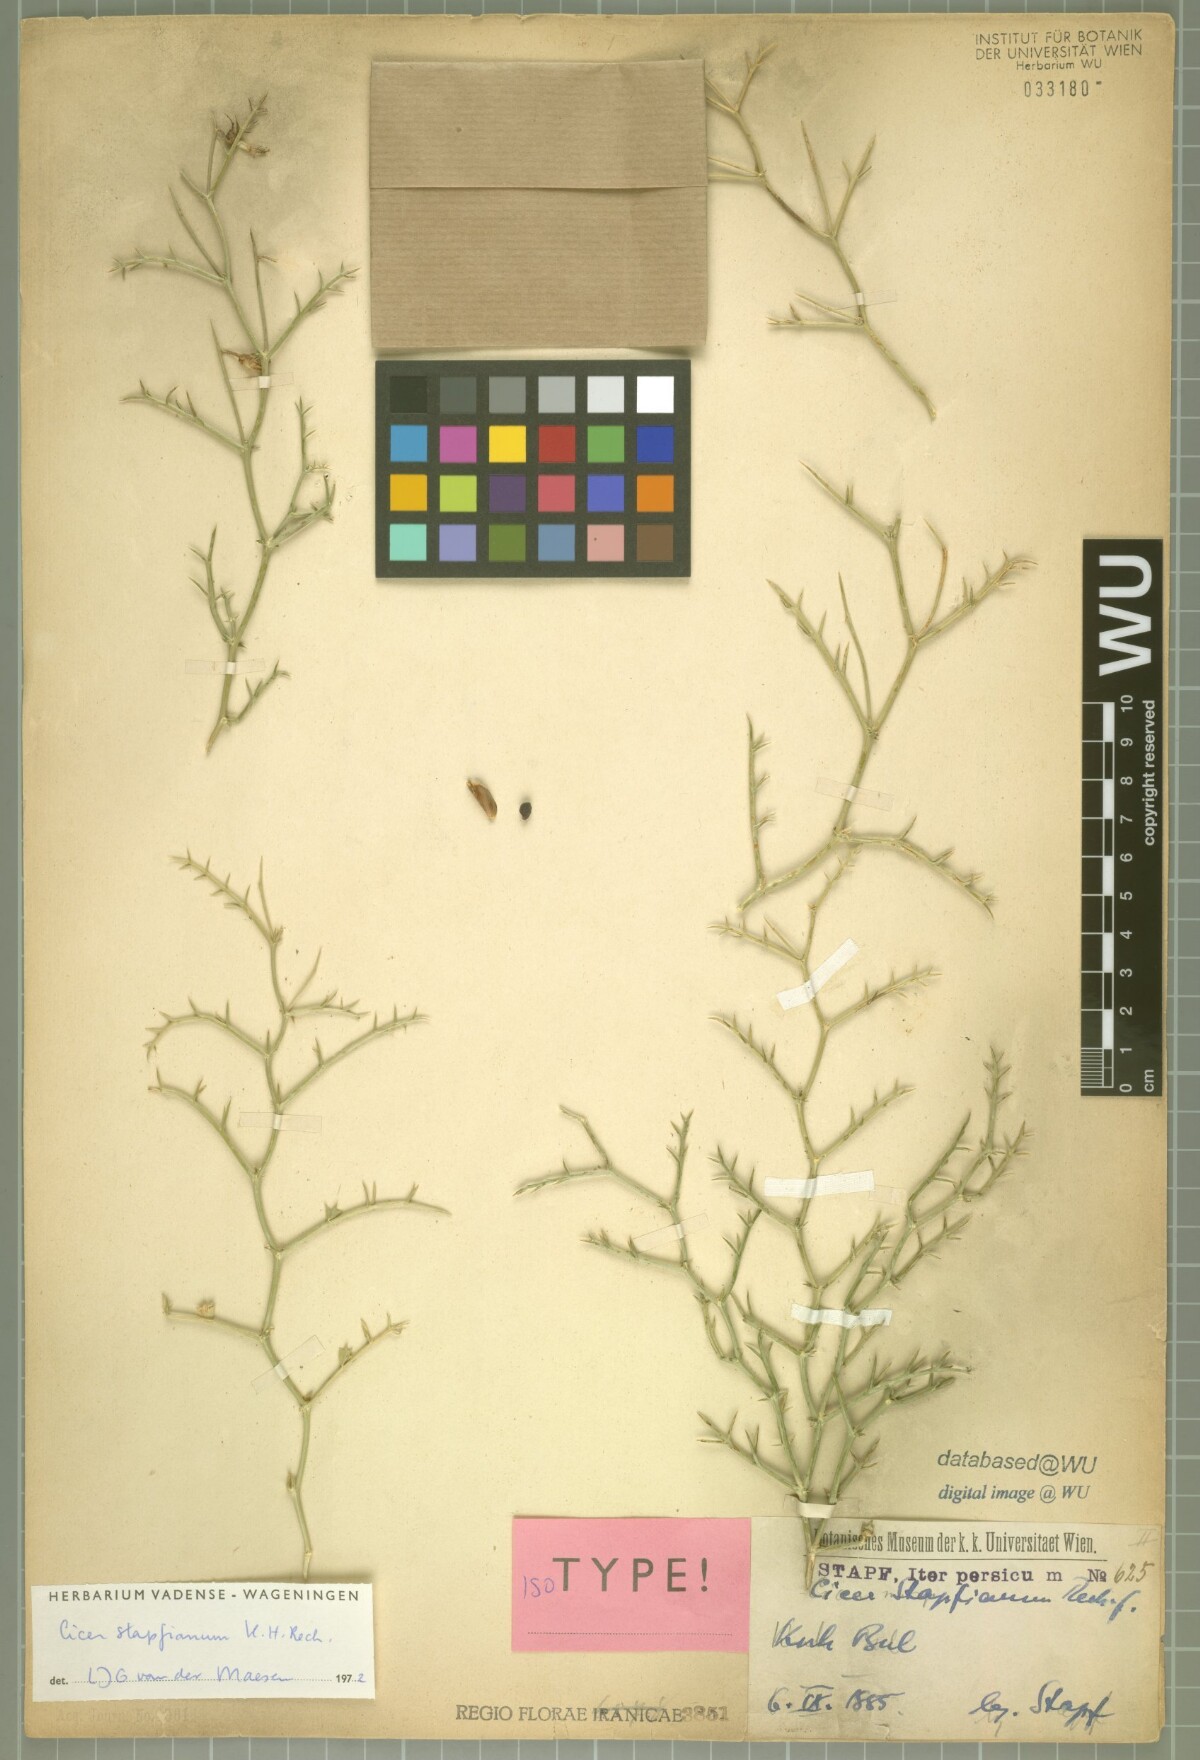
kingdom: Plantae
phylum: Tracheophyta
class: Magnoliopsida
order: Fabales
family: Fabaceae
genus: Cicer
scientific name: Cicer stapfianum
